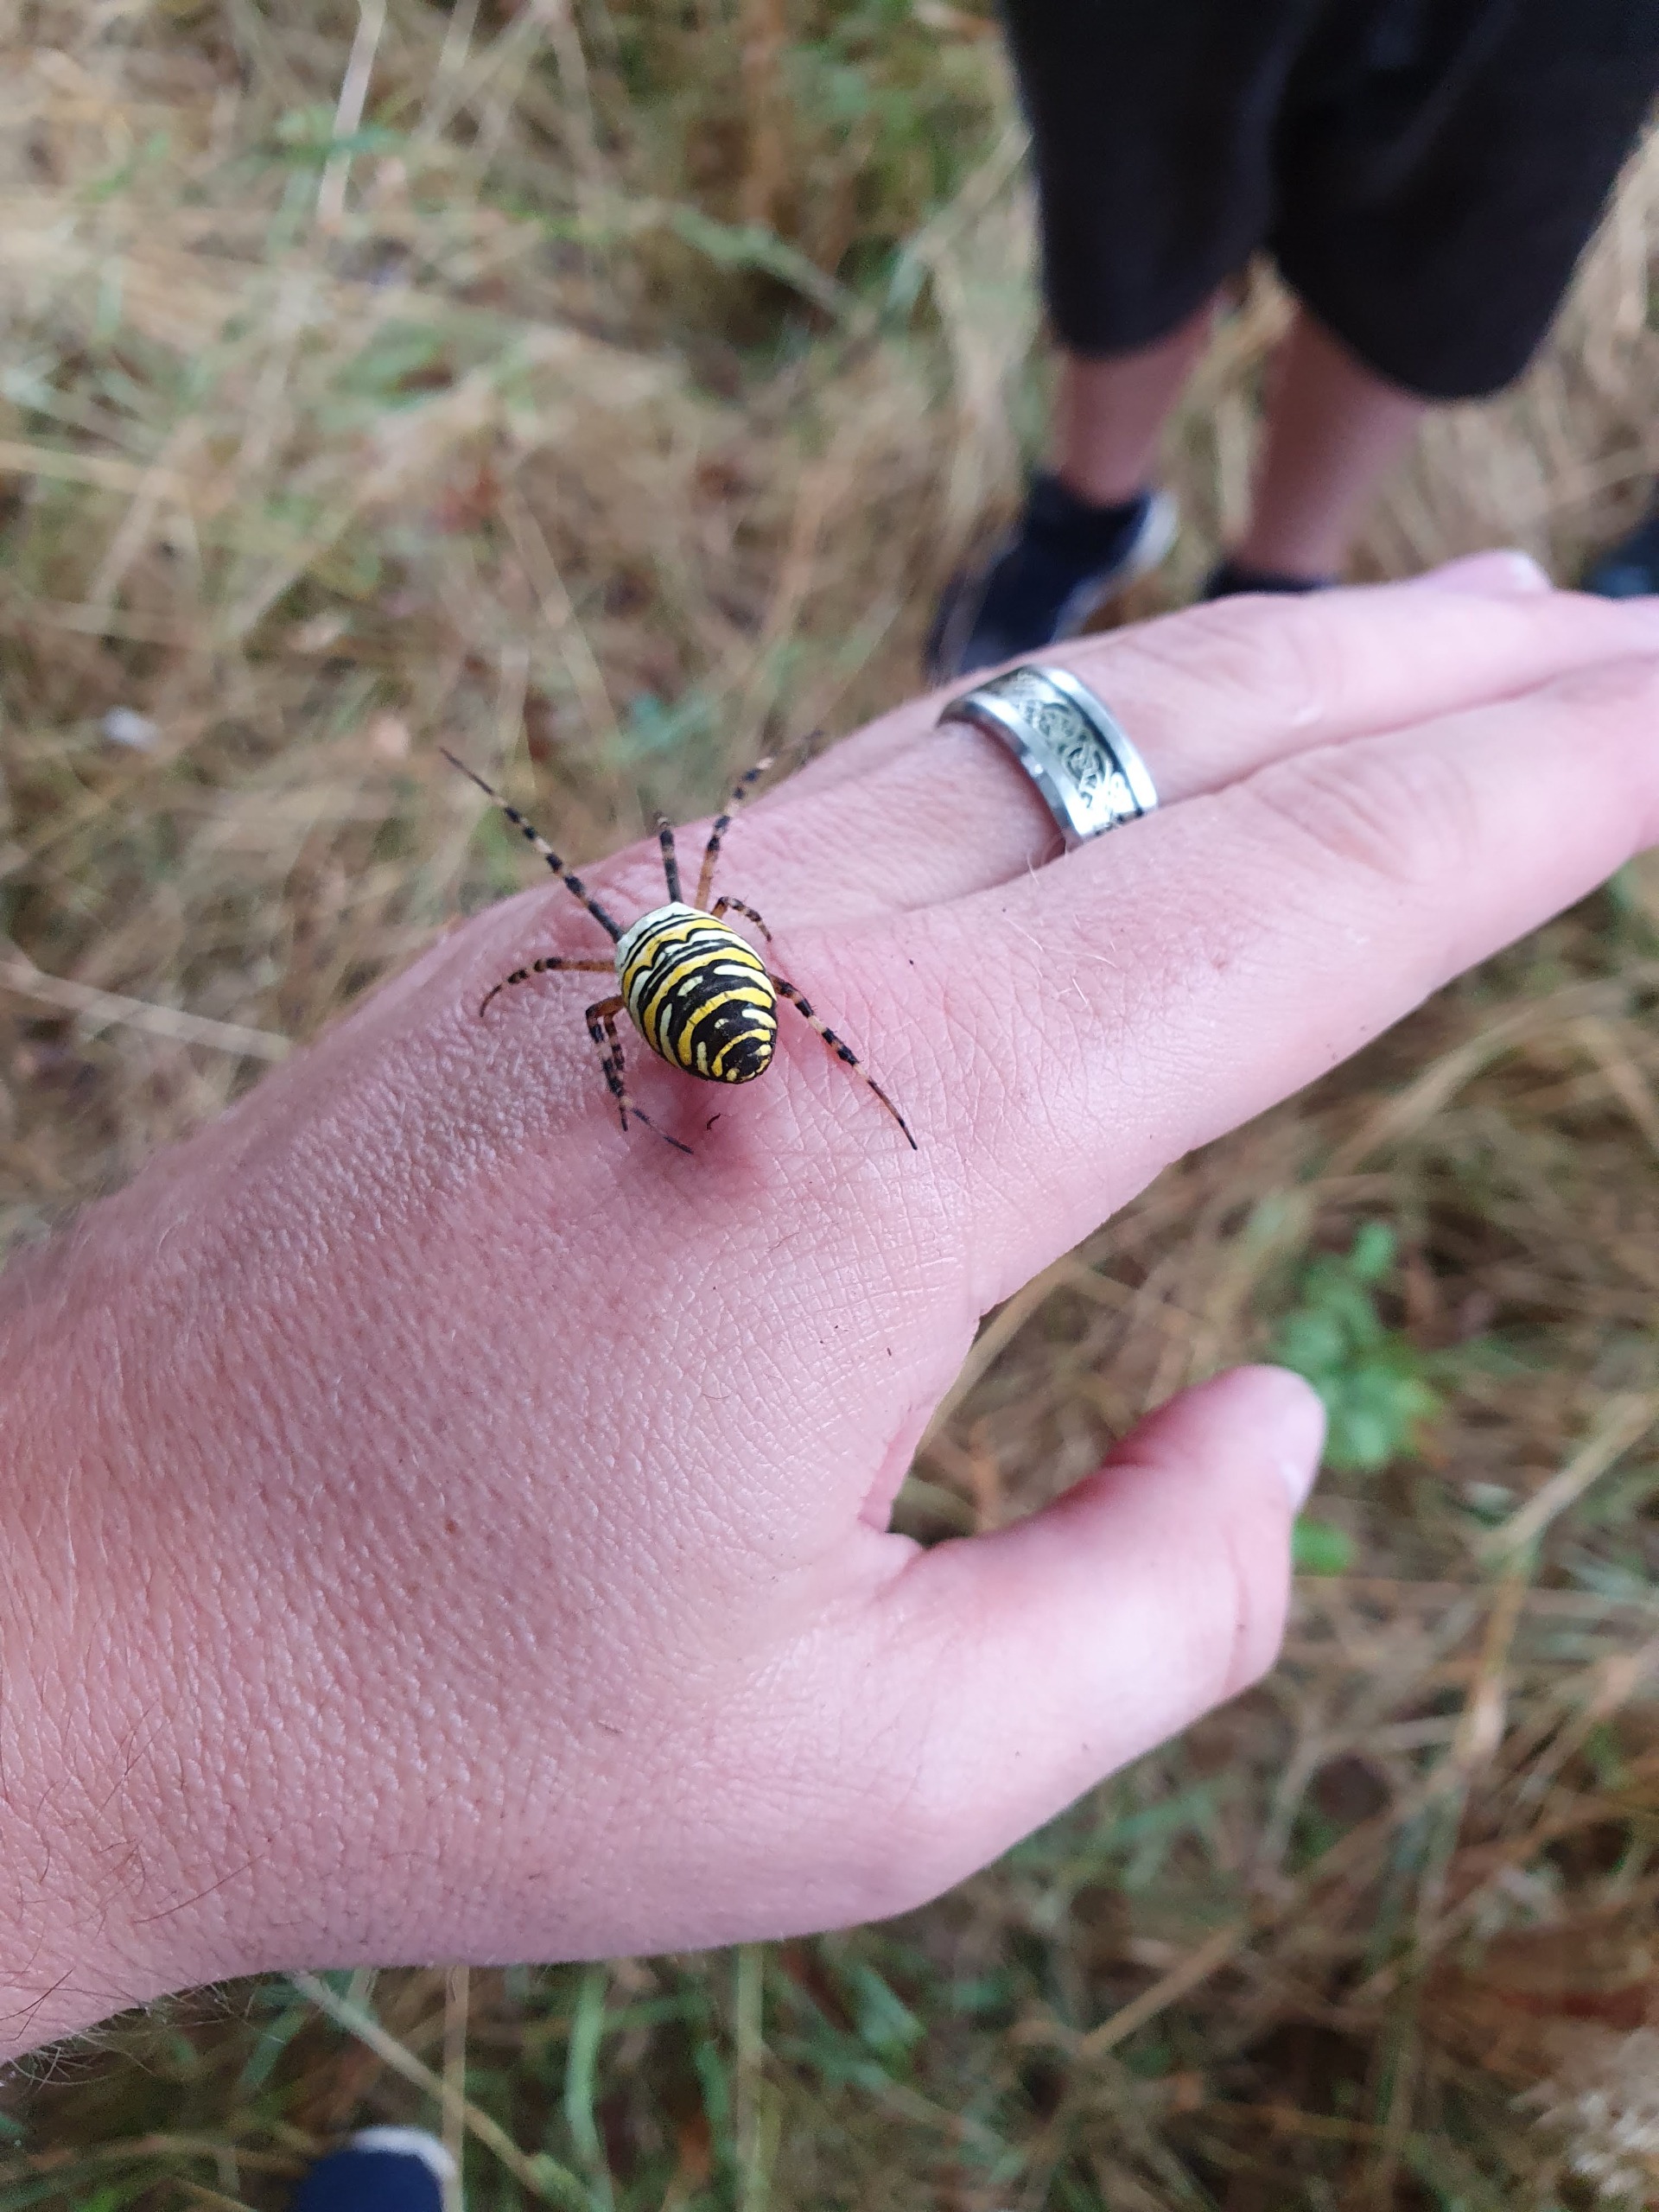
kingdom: Animalia
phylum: Arthropoda
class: Arachnida
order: Araneae
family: Araneidae
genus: Argiope
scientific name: Argiope bruennichi
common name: Hvepseedderkop
